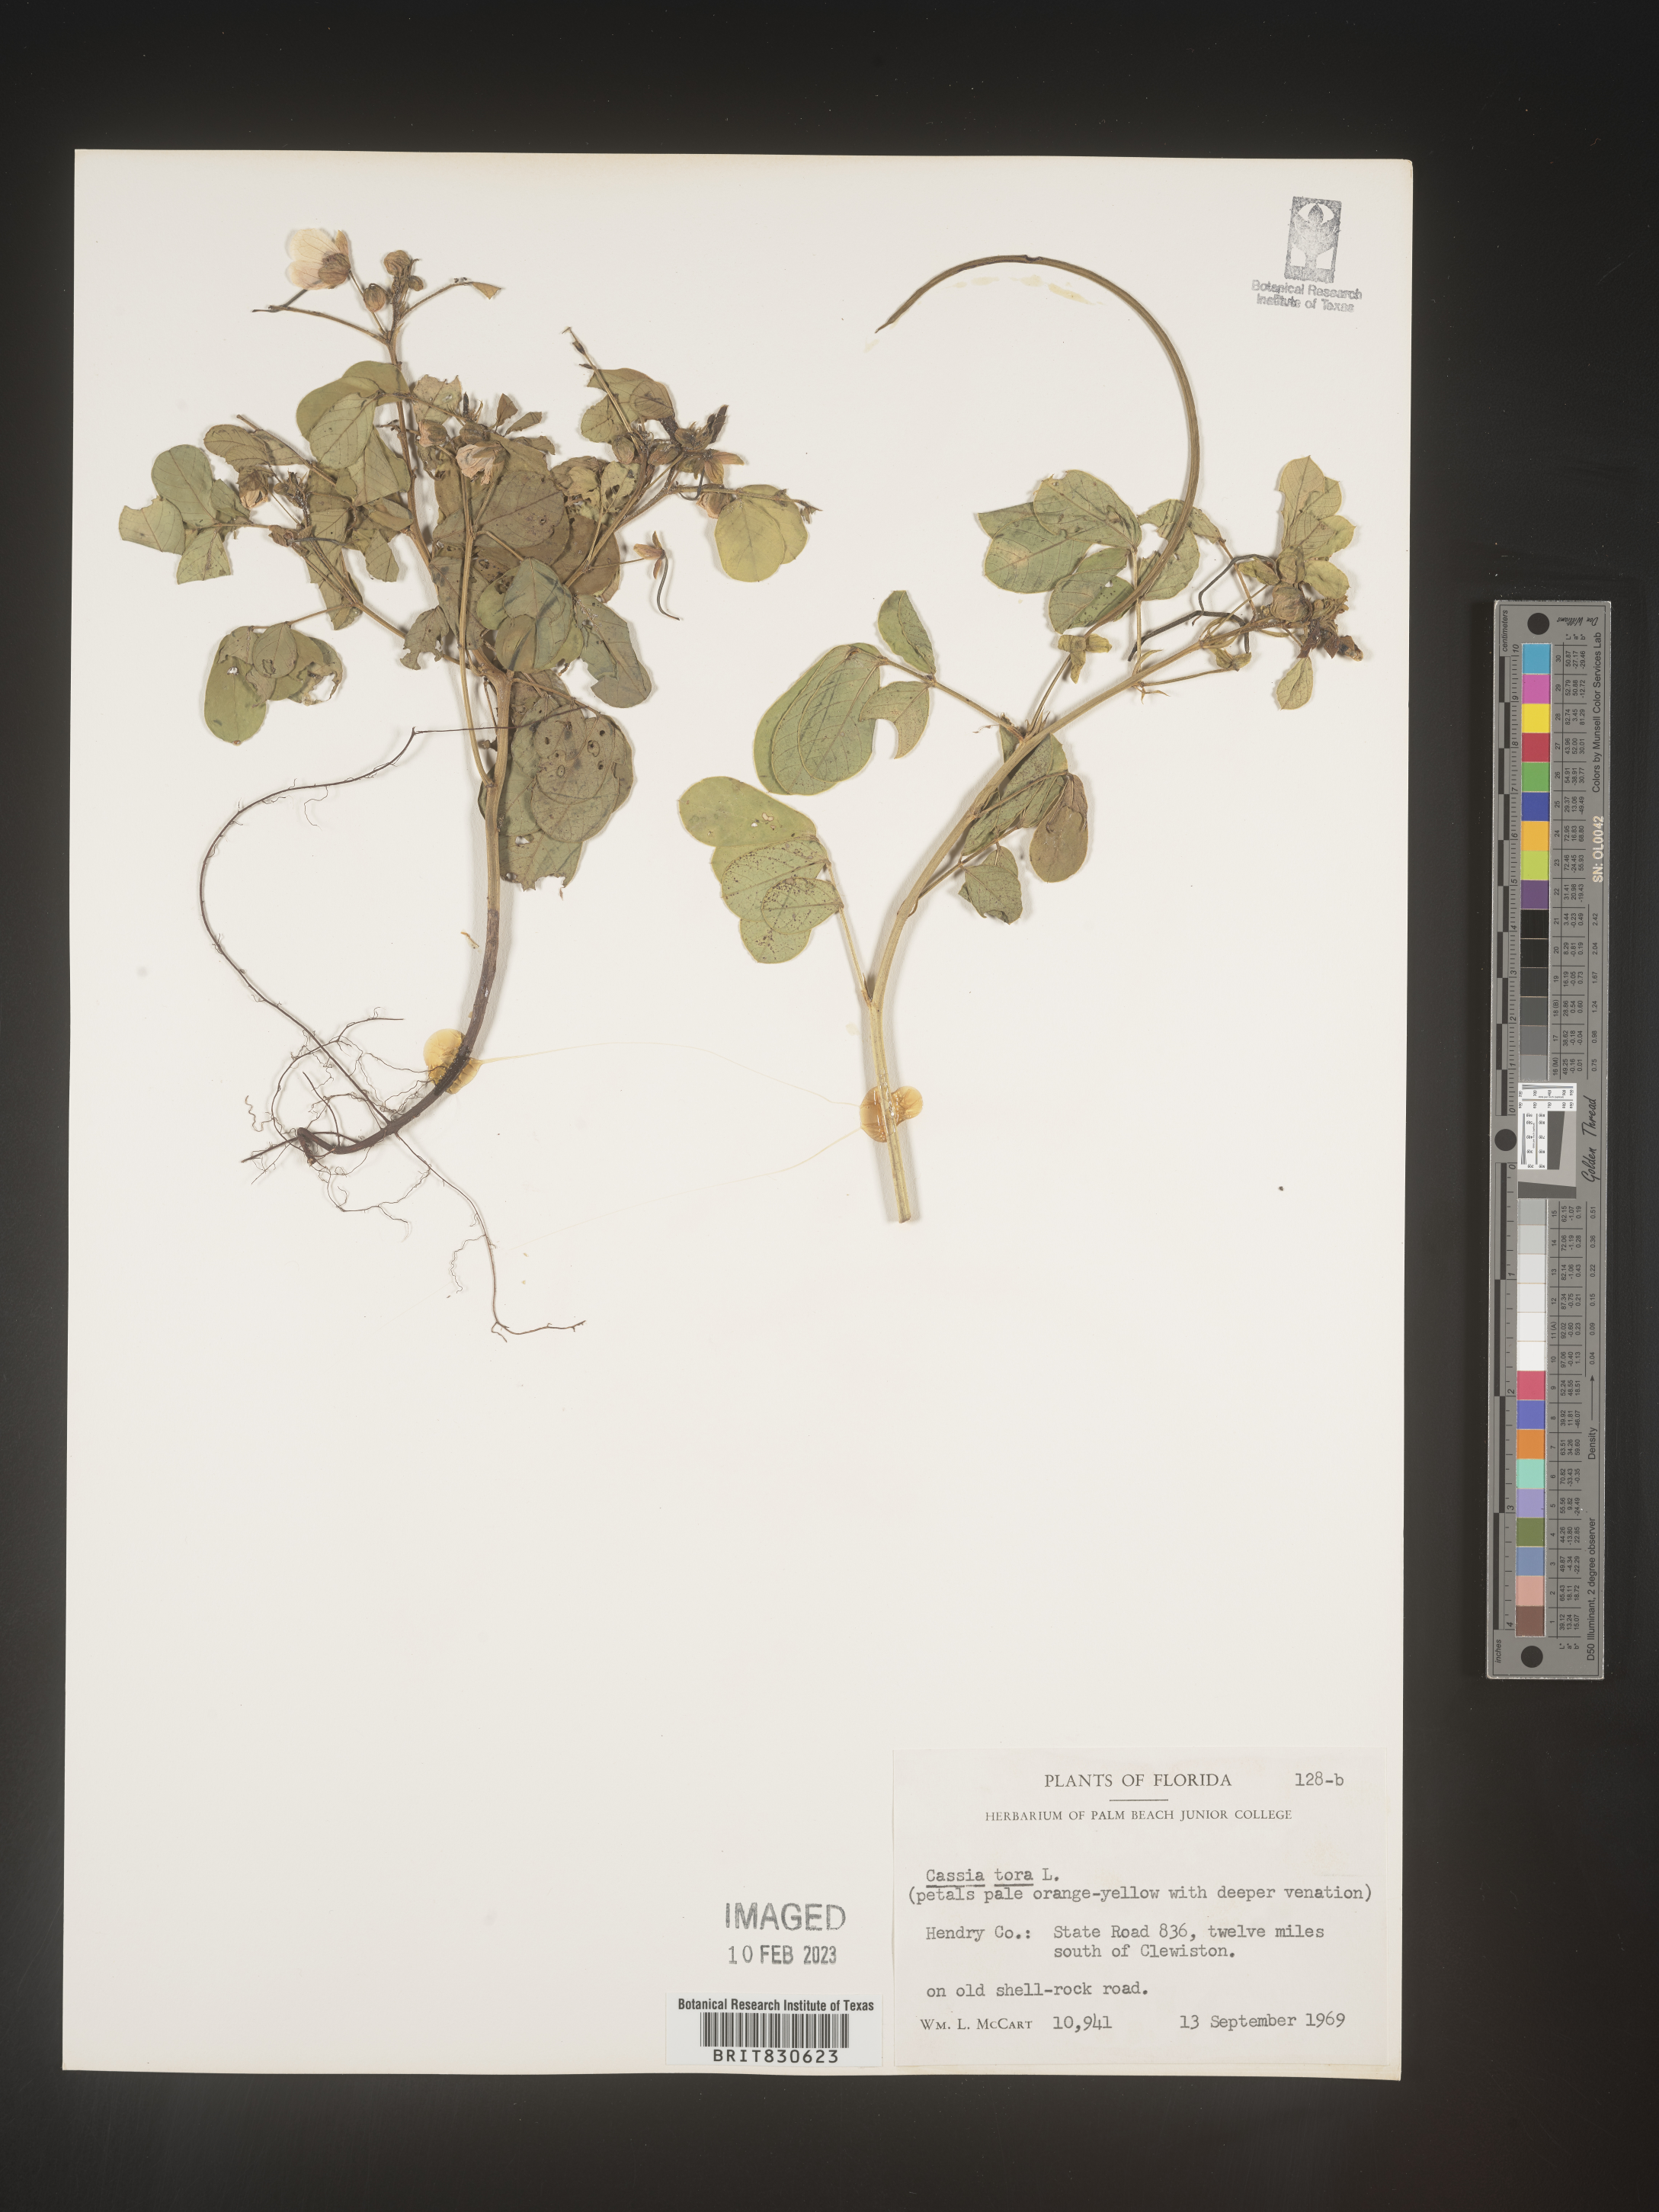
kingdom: Plantae
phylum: Tracheophyta
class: Magnoliopsida
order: Fabales
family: Fabaceae
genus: Senna
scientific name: Senna obtusifolia
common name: Java-bean
